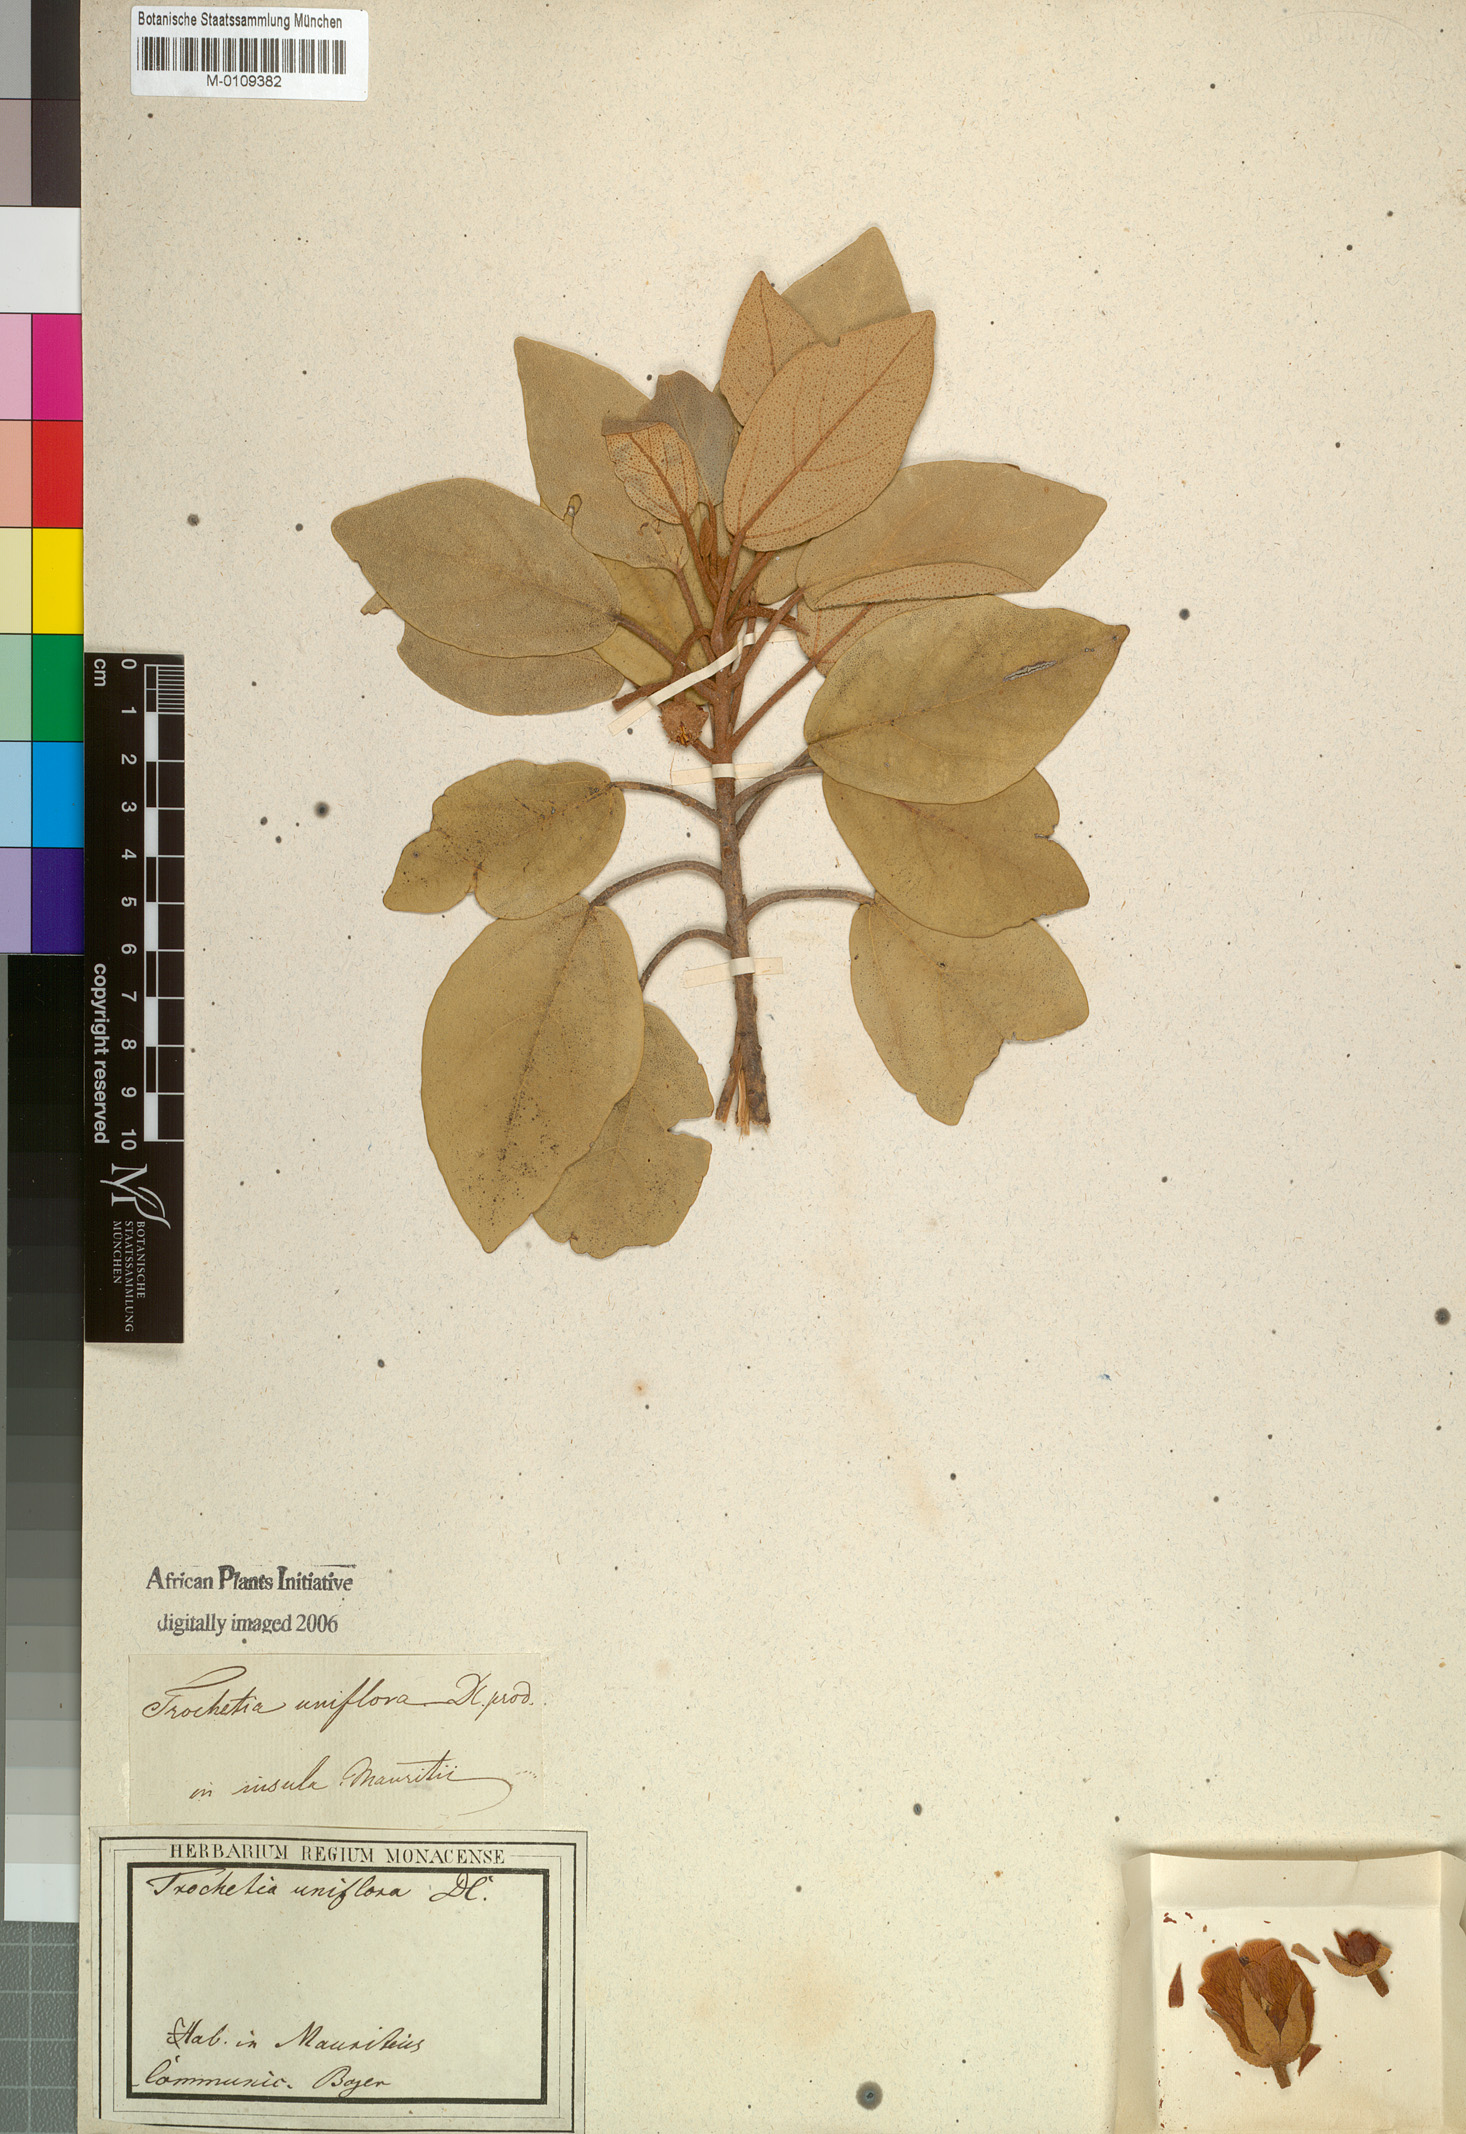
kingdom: Plantae
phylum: Tracheophyta
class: Magnoliopsida
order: Malvales
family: Malvaceae
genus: Ruizia
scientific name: Ruizia uniflora
